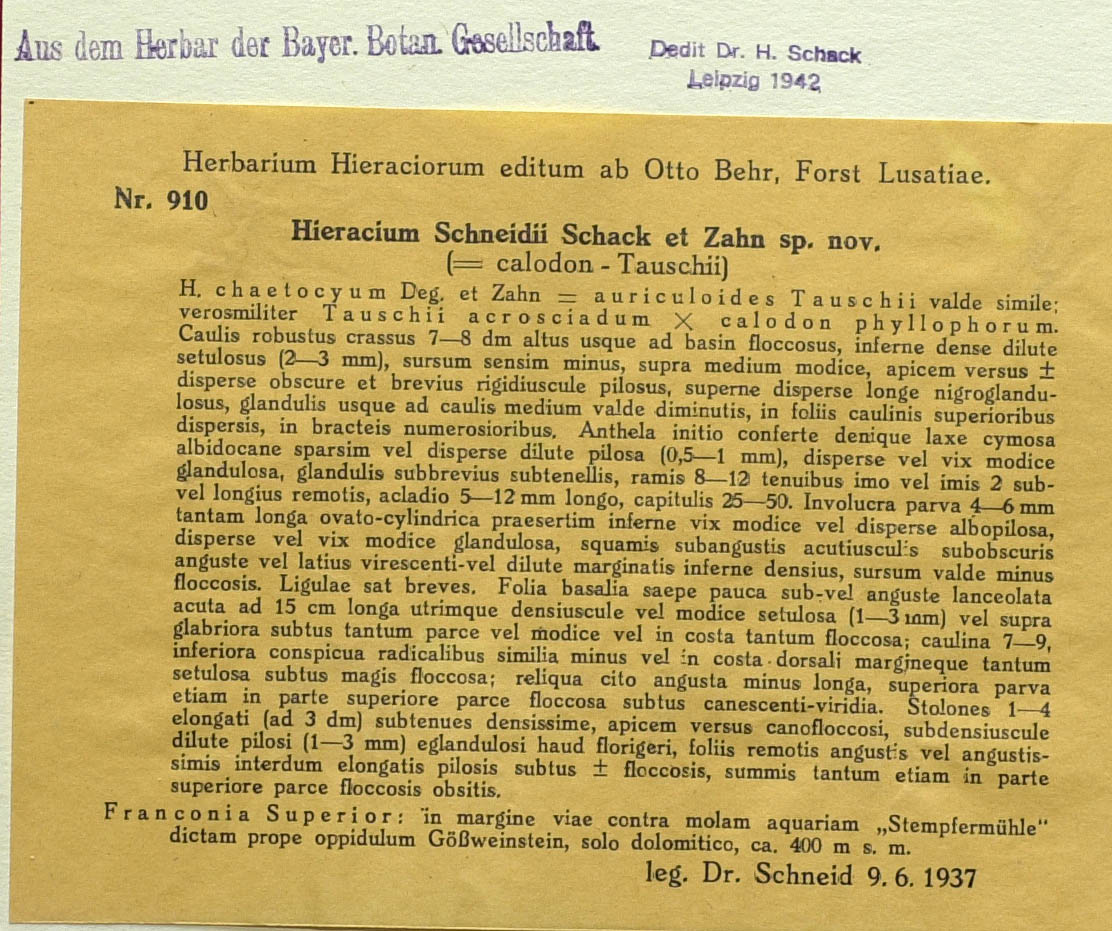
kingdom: Plantae
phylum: Tracheophyta
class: Magnoliopsida
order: Asterales
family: Asteraceae
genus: Pilosella
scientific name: Pilosella schneidii
